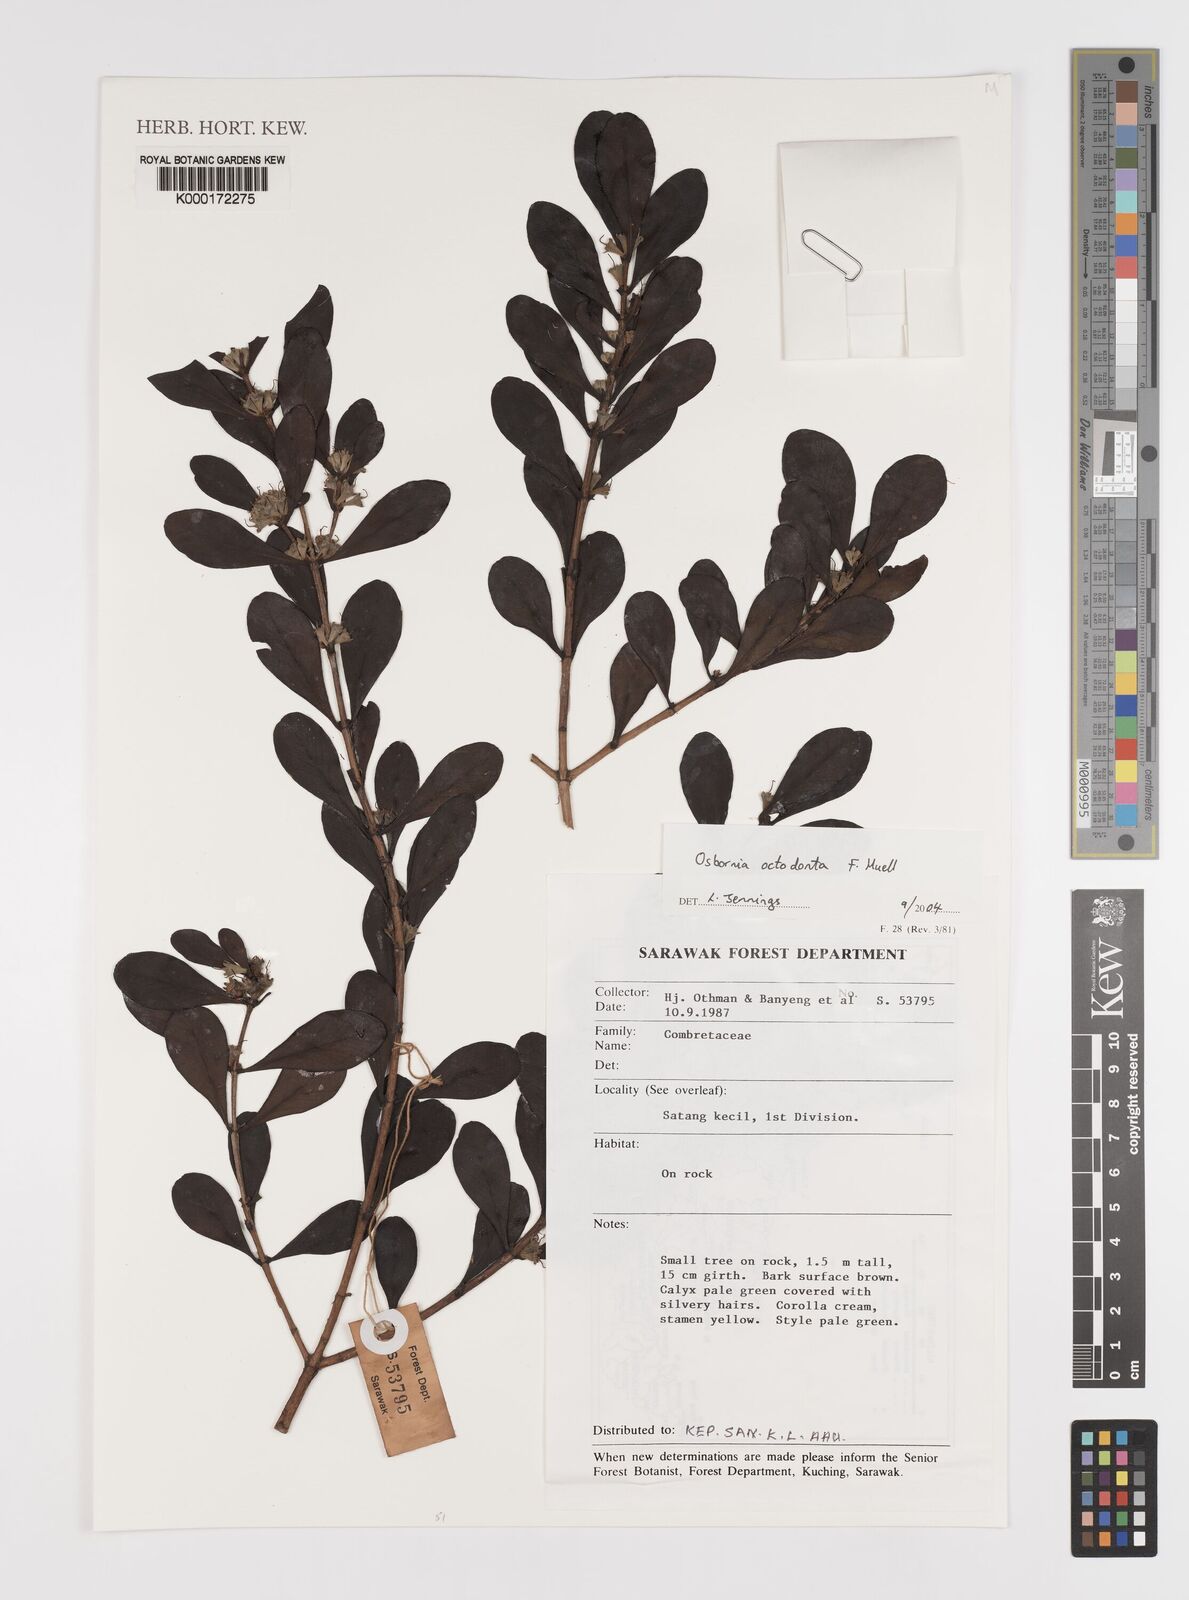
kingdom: Plantae
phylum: Tracheophyta
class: Magnoliopsida
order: Myrtales
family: Myrtaceae
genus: Osbornia
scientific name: Osbornia octodonta
